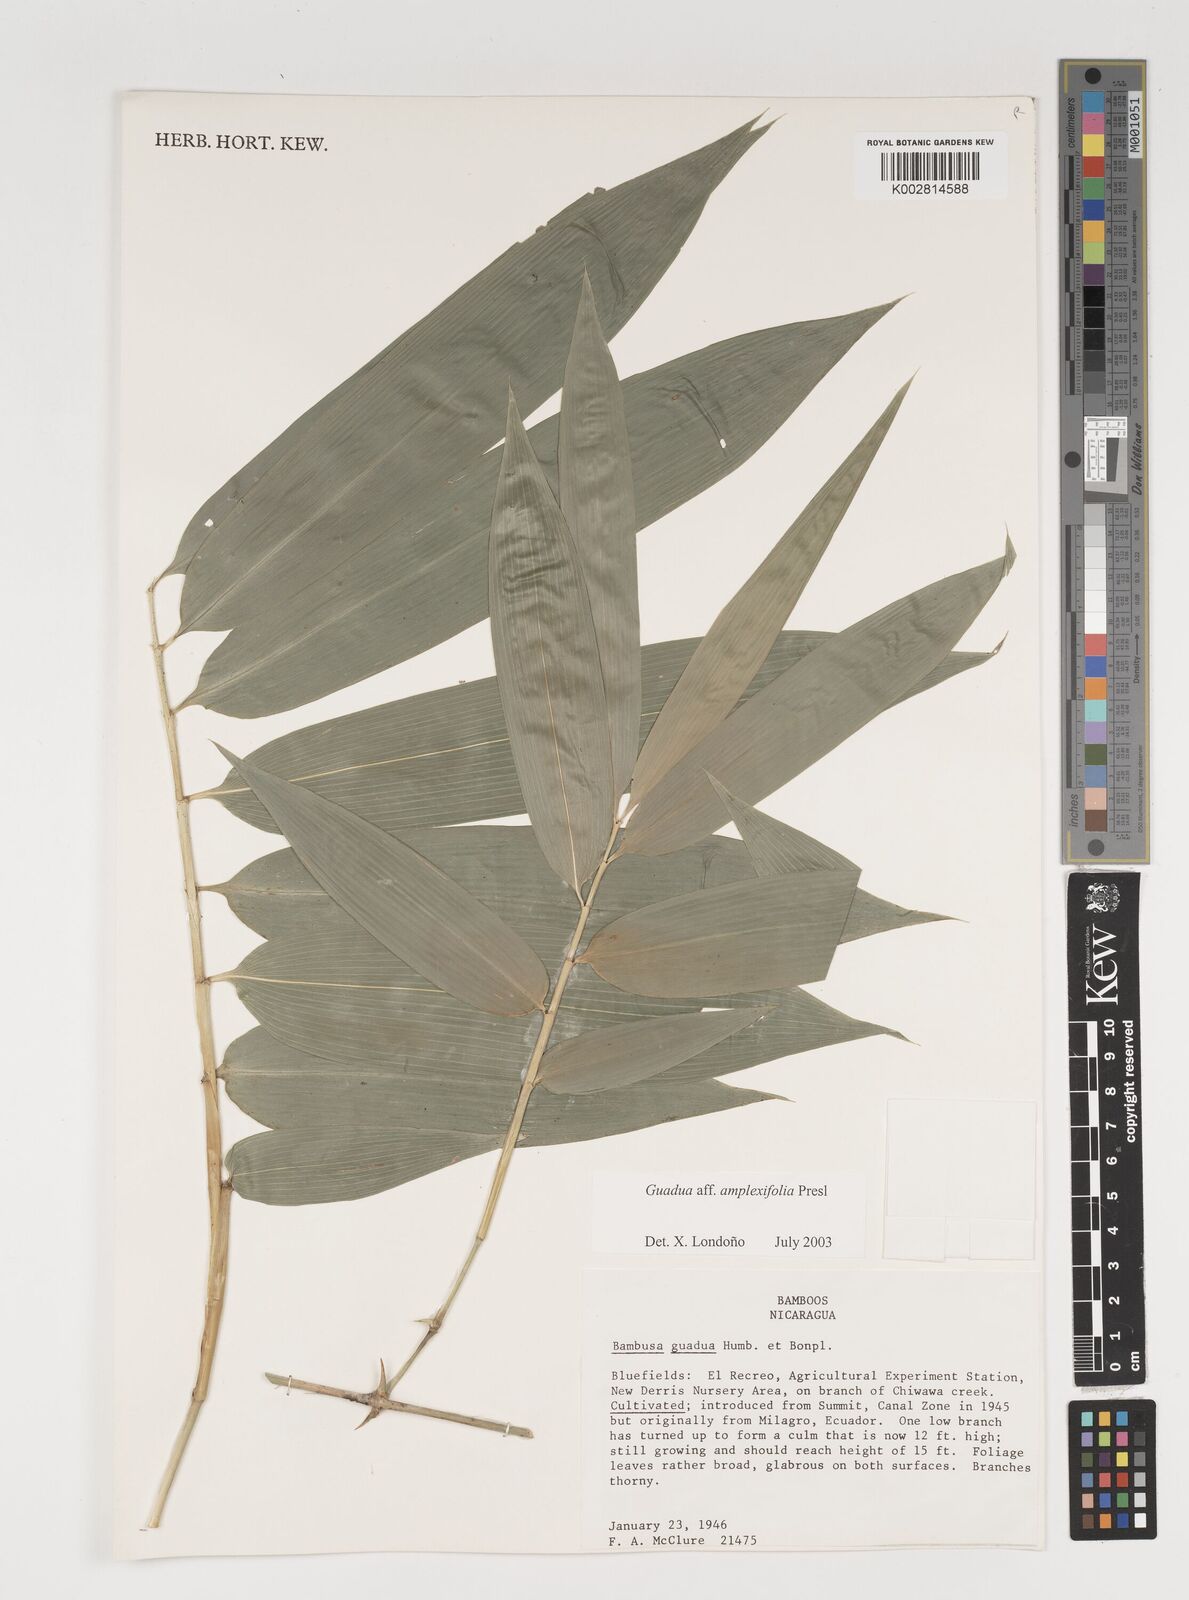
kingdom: Plantae
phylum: Tracheophyta
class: Liliopsida
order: Poales
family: Poaceae
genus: Guadua
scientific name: Guadua amplexifolia
